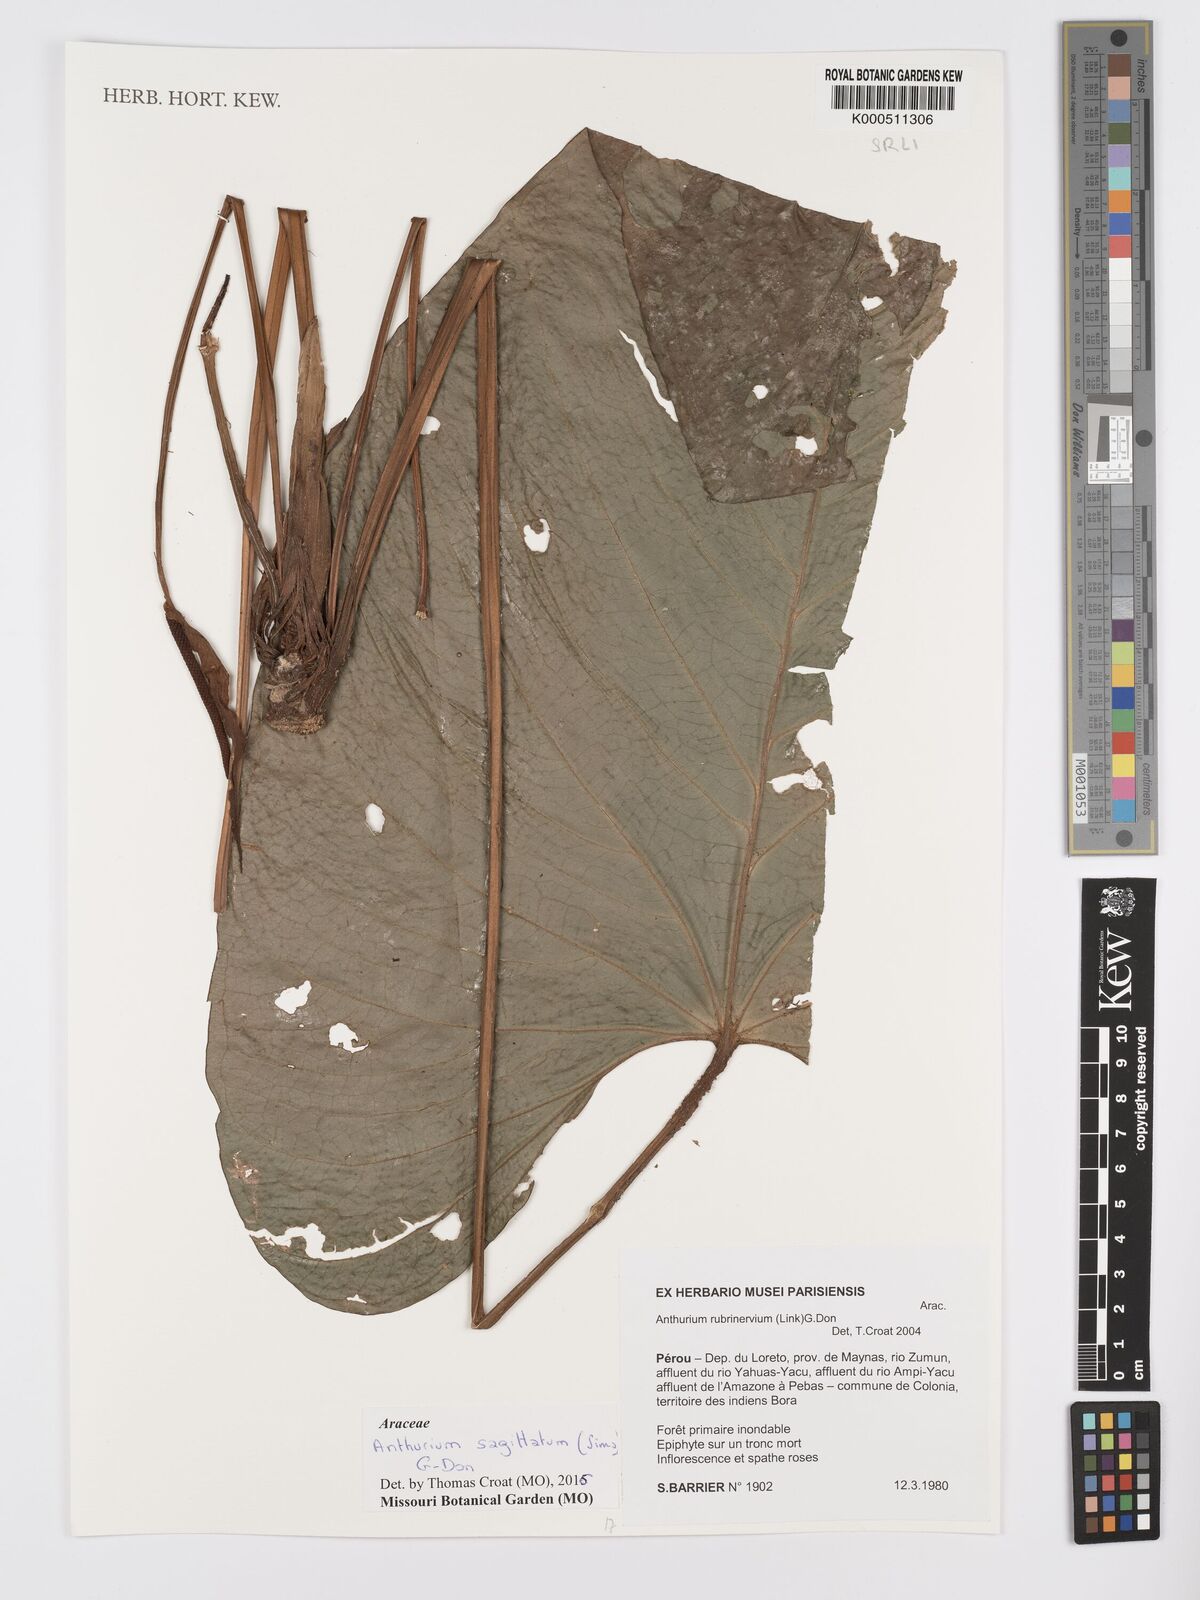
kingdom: Plantae
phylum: Tracheophyta
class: Liliopsida
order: Alismatales
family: Araceae
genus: Anthurium
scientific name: Anthurium sagittatum
